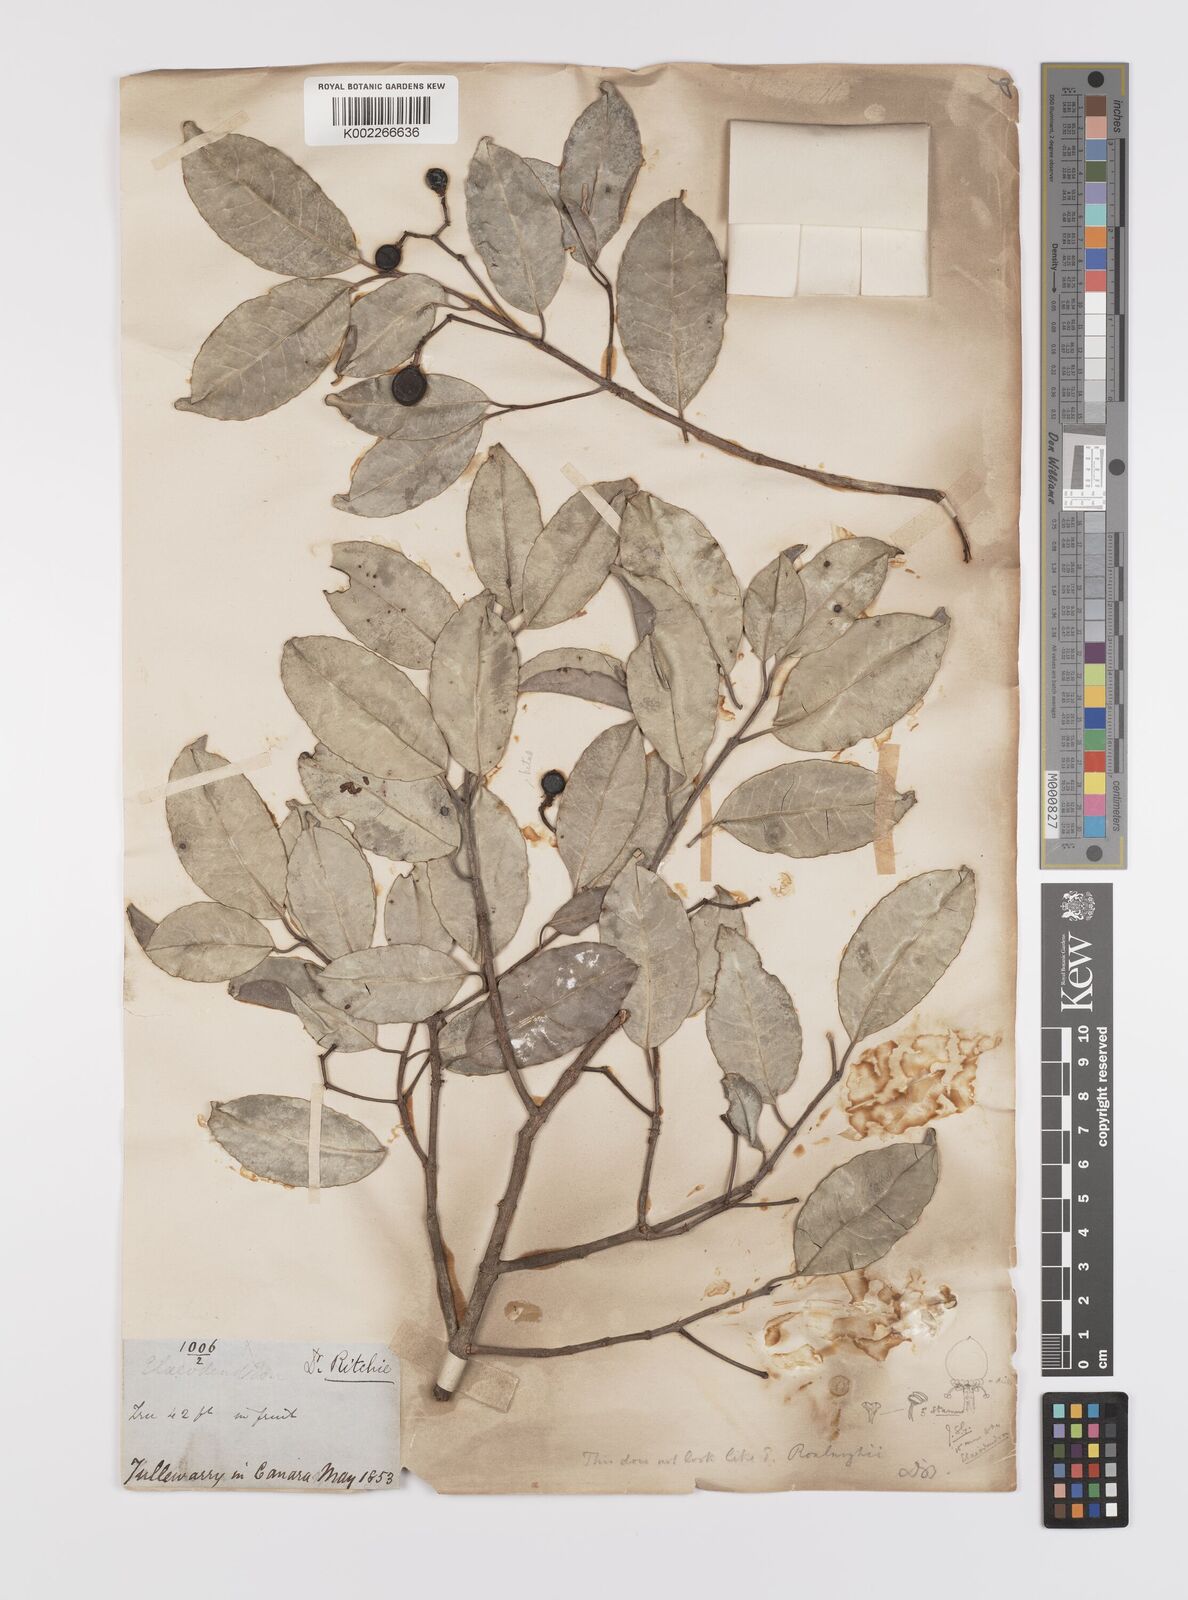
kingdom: Plantae
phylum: Tracheophyta
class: Magnoliopsida
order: Celastrales
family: Celastraceae
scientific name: Celastraceae
